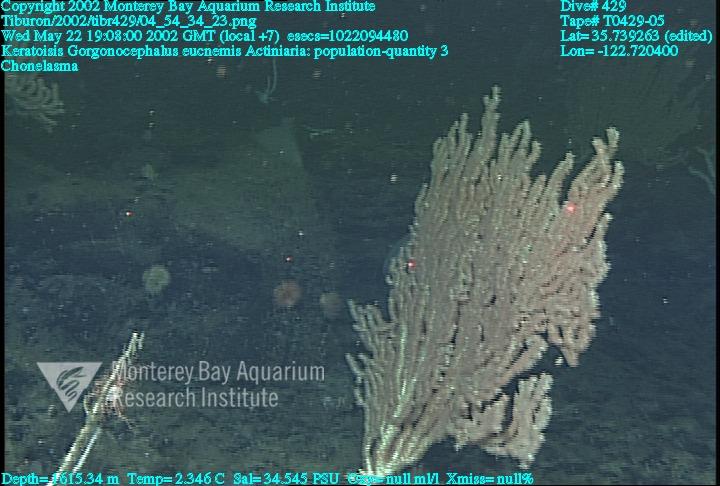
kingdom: Animalia
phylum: Porifera
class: Hexactinellida
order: Sceptrulophora
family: Euretidae
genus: Chonelasma
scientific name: Chonelasma
